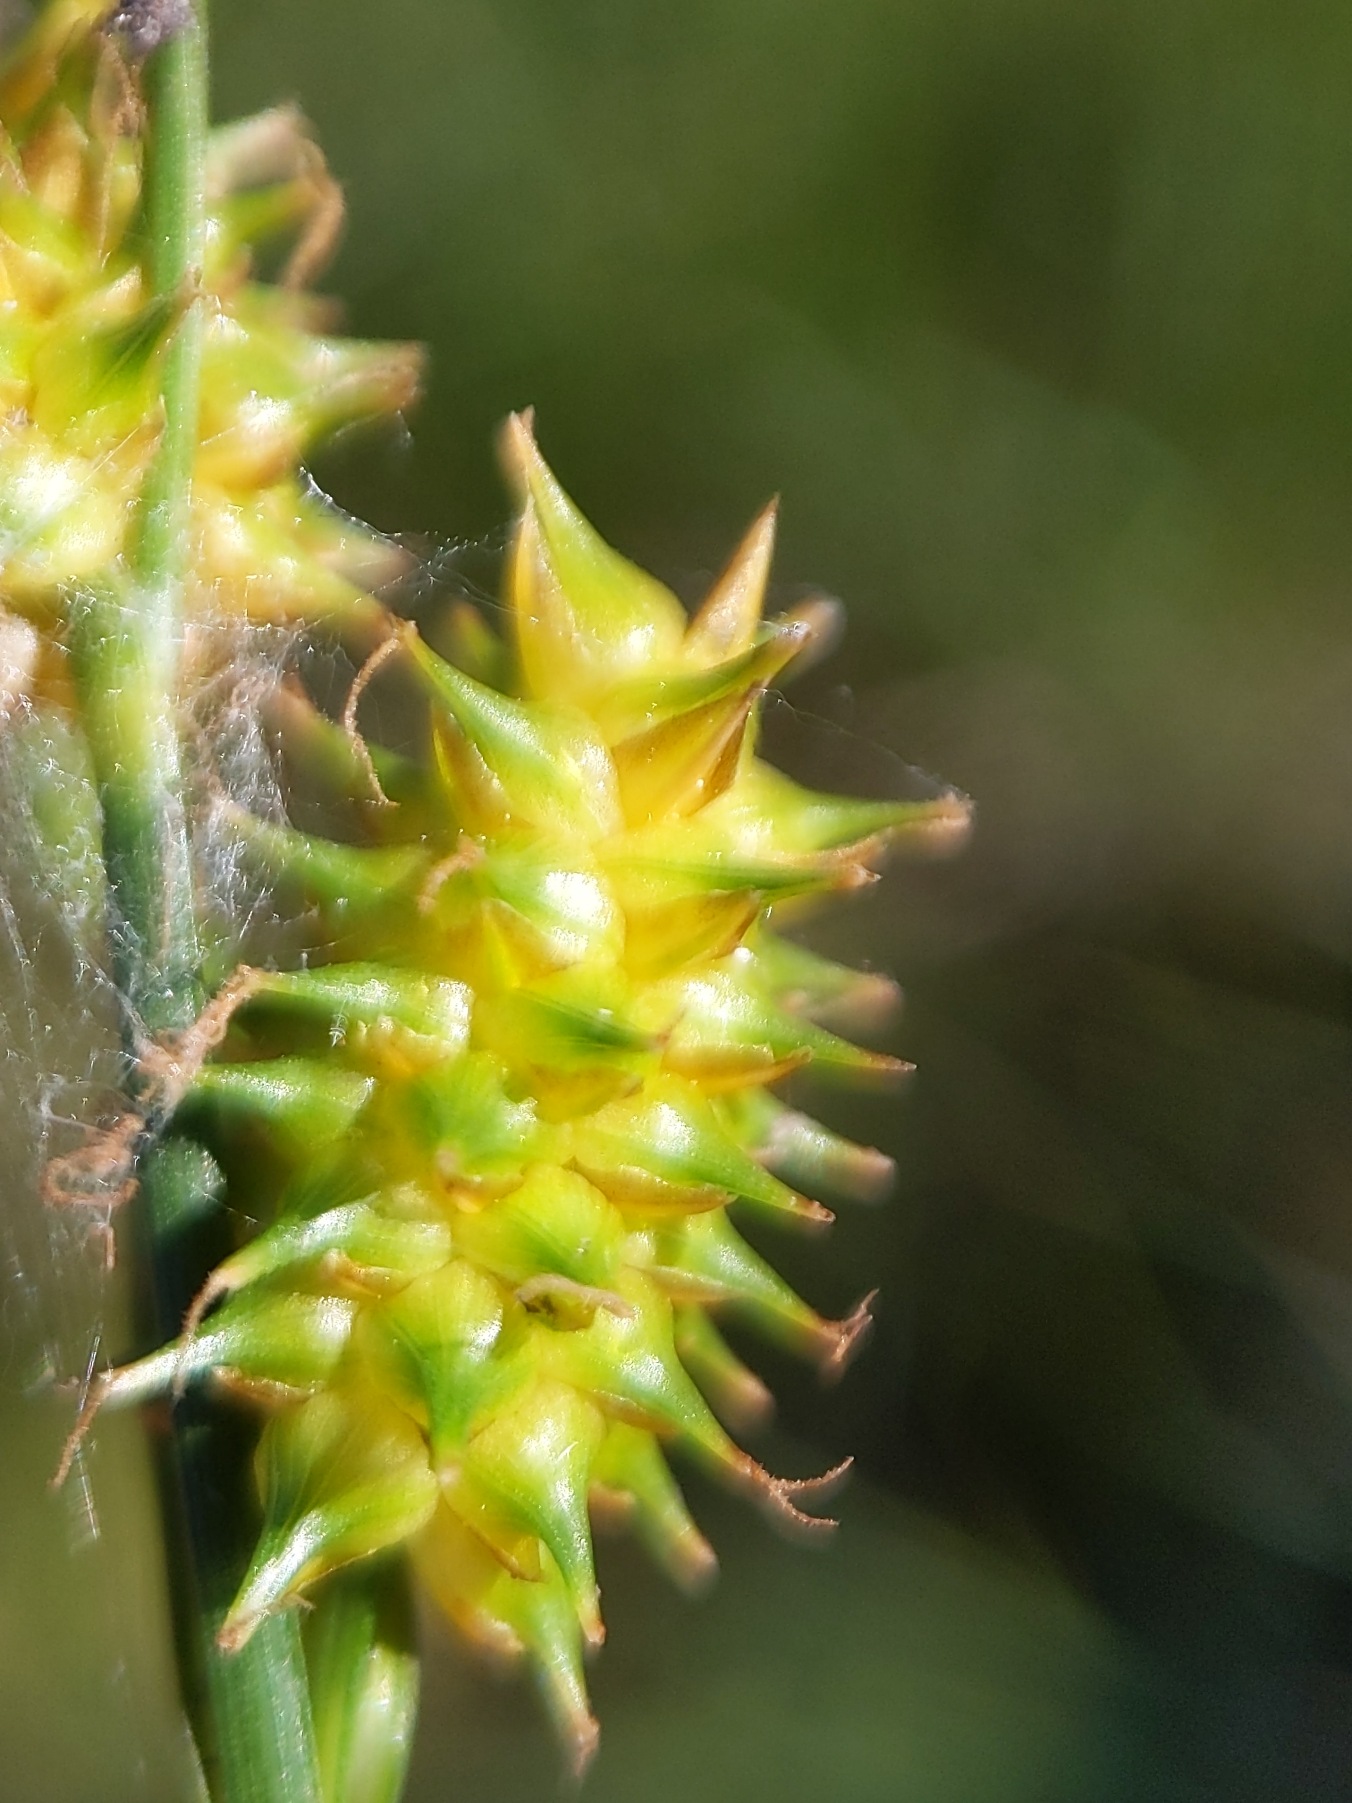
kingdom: Plantae
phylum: Tracheophyta
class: Liliopsida
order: Poales
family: Cyperaceae
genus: Carex
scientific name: Carex demissa
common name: Grøn star
